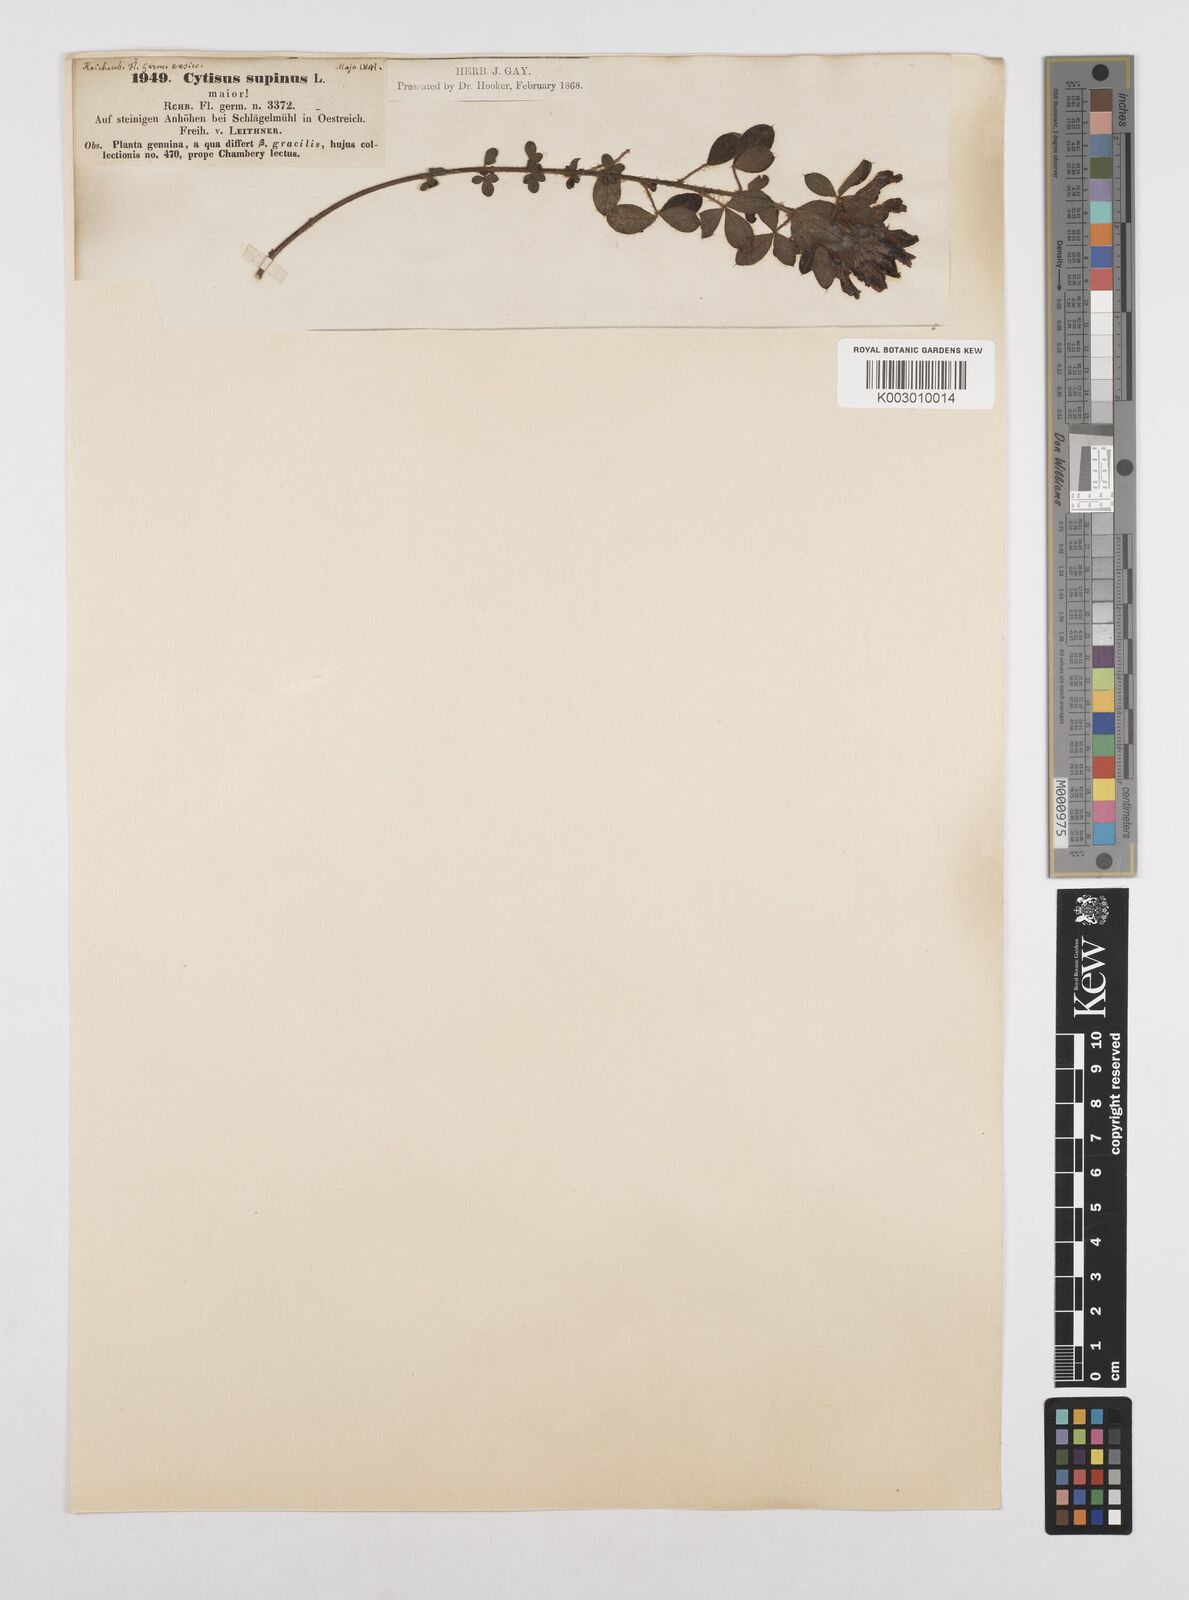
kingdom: Plantae
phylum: Tracheophyta
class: Magnoliopsida
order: Fabales
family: Fabaceae
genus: Chamaecytisus
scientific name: Chamaecytisus hirsutus
